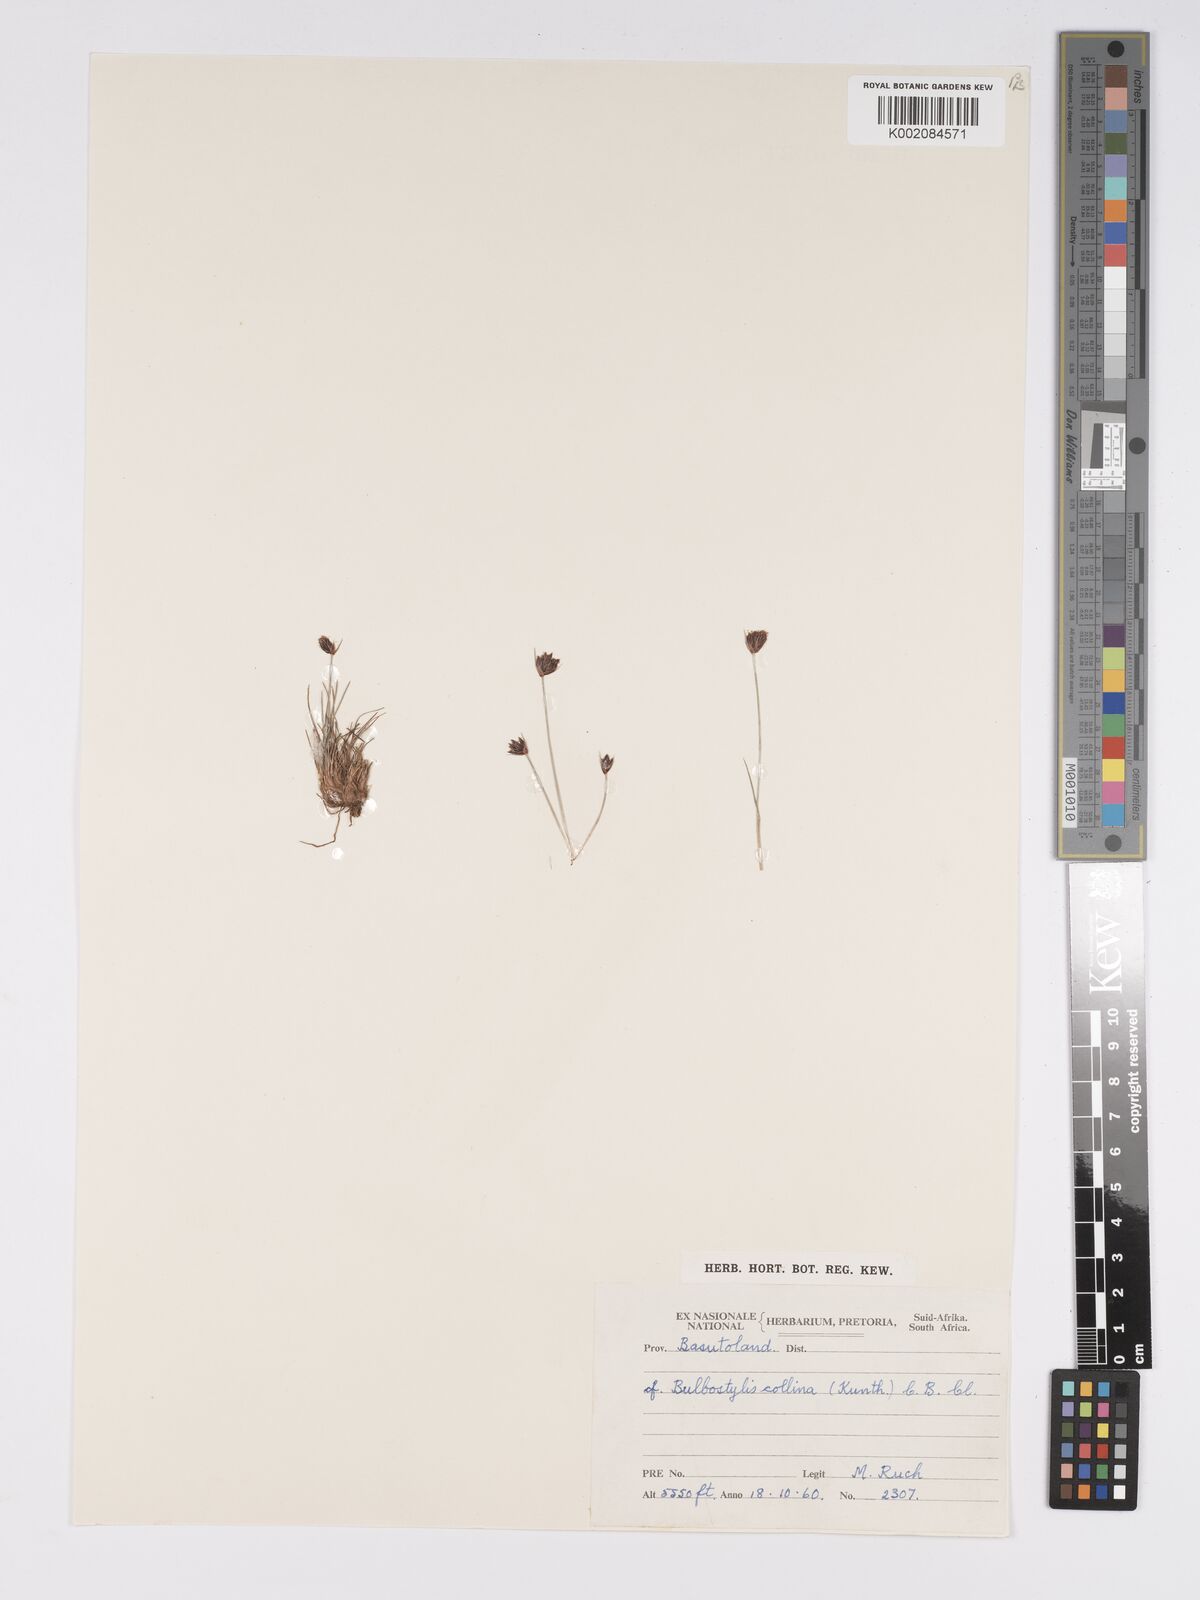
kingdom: Plantae
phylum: Tracheophyta
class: Liliopsida
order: Poales
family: Cyperaceae
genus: Bulbostylis
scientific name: Bulbostylis contexta
